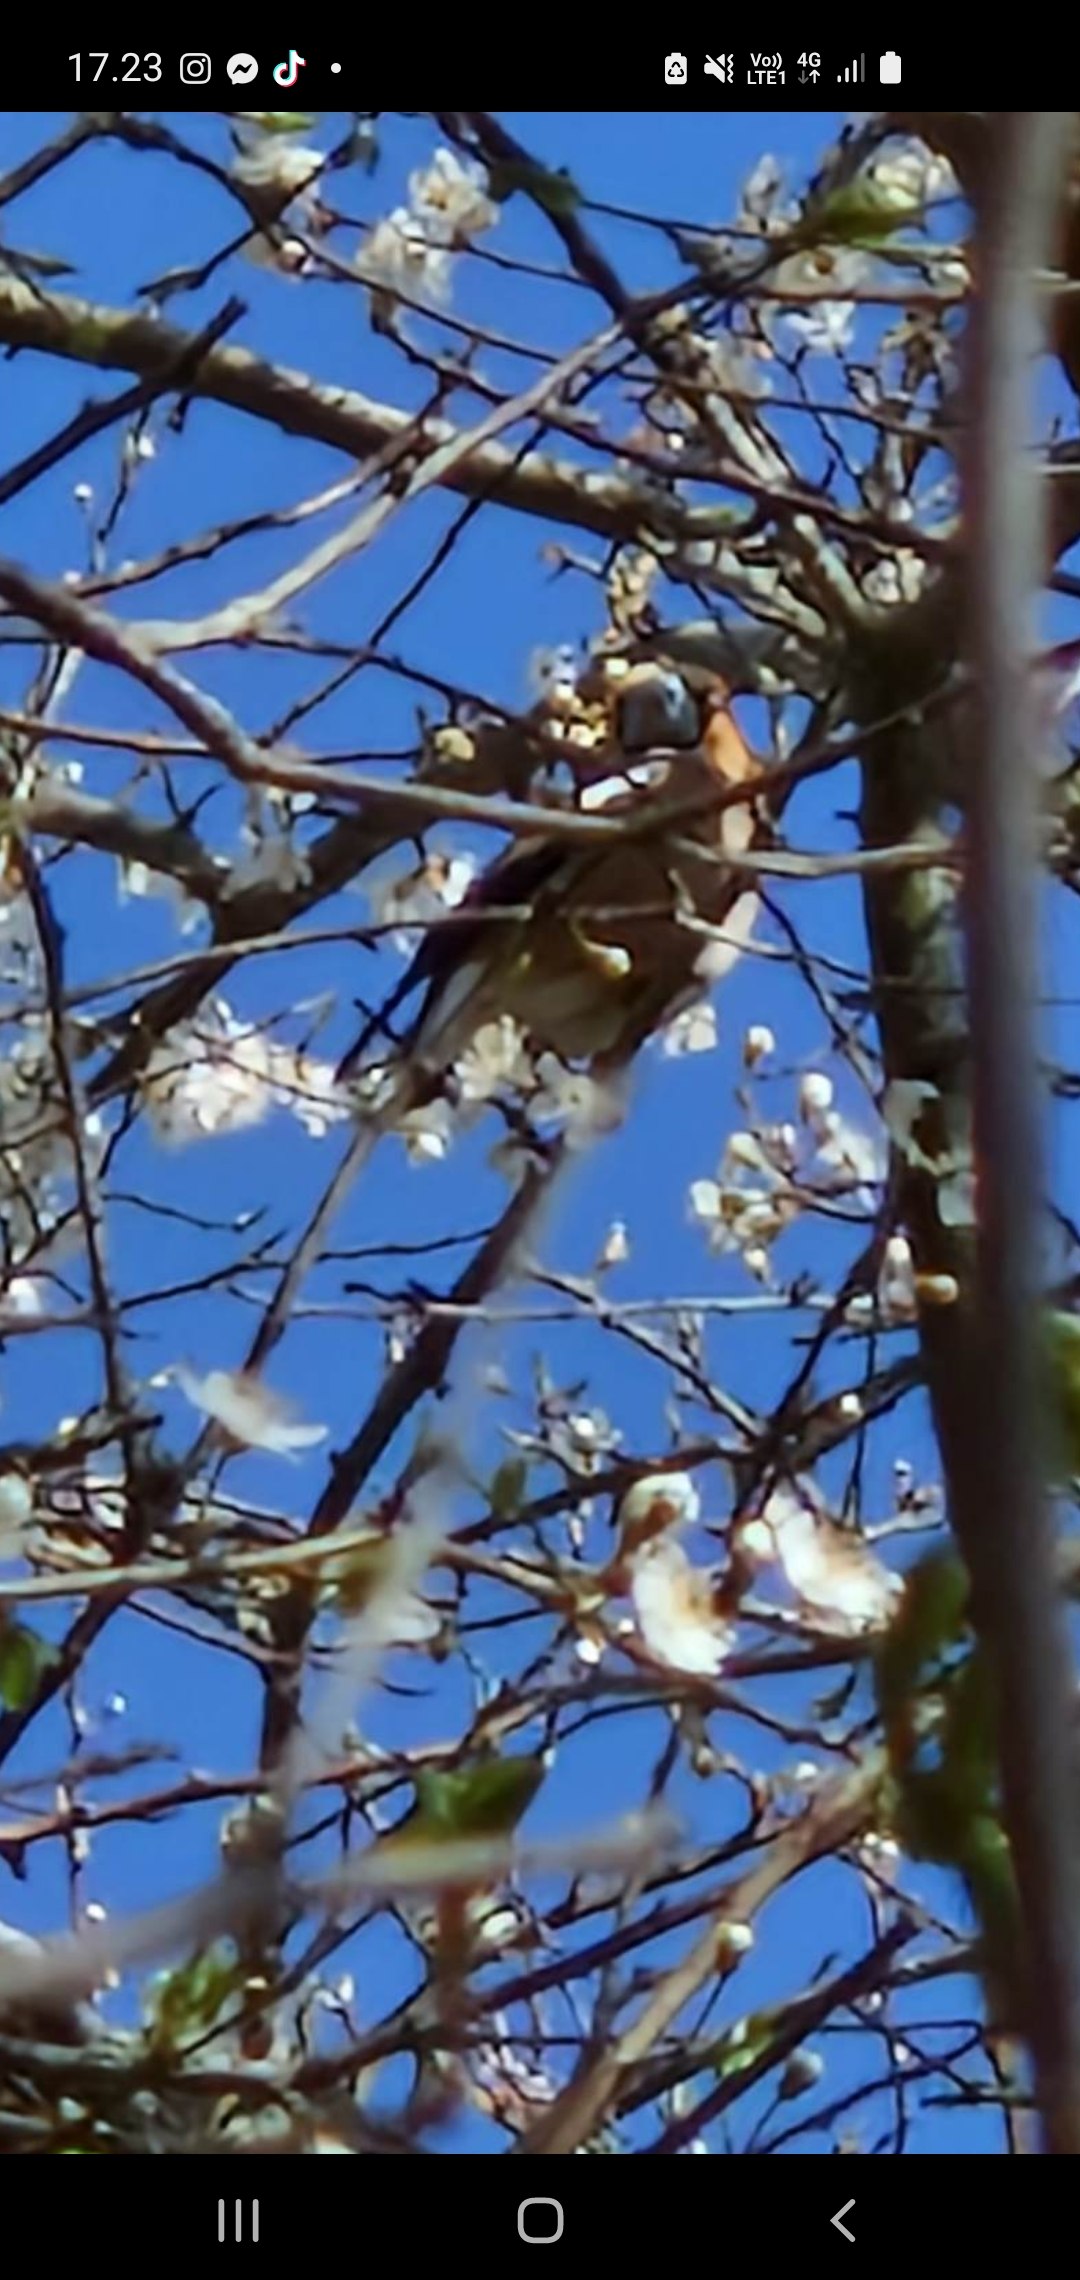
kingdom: Animalia
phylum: Chordata
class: Aves
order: Passeriformes
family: Fringillidae
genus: Coccothraustes
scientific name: Coccothraustes coccothraustes
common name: Kernebider
